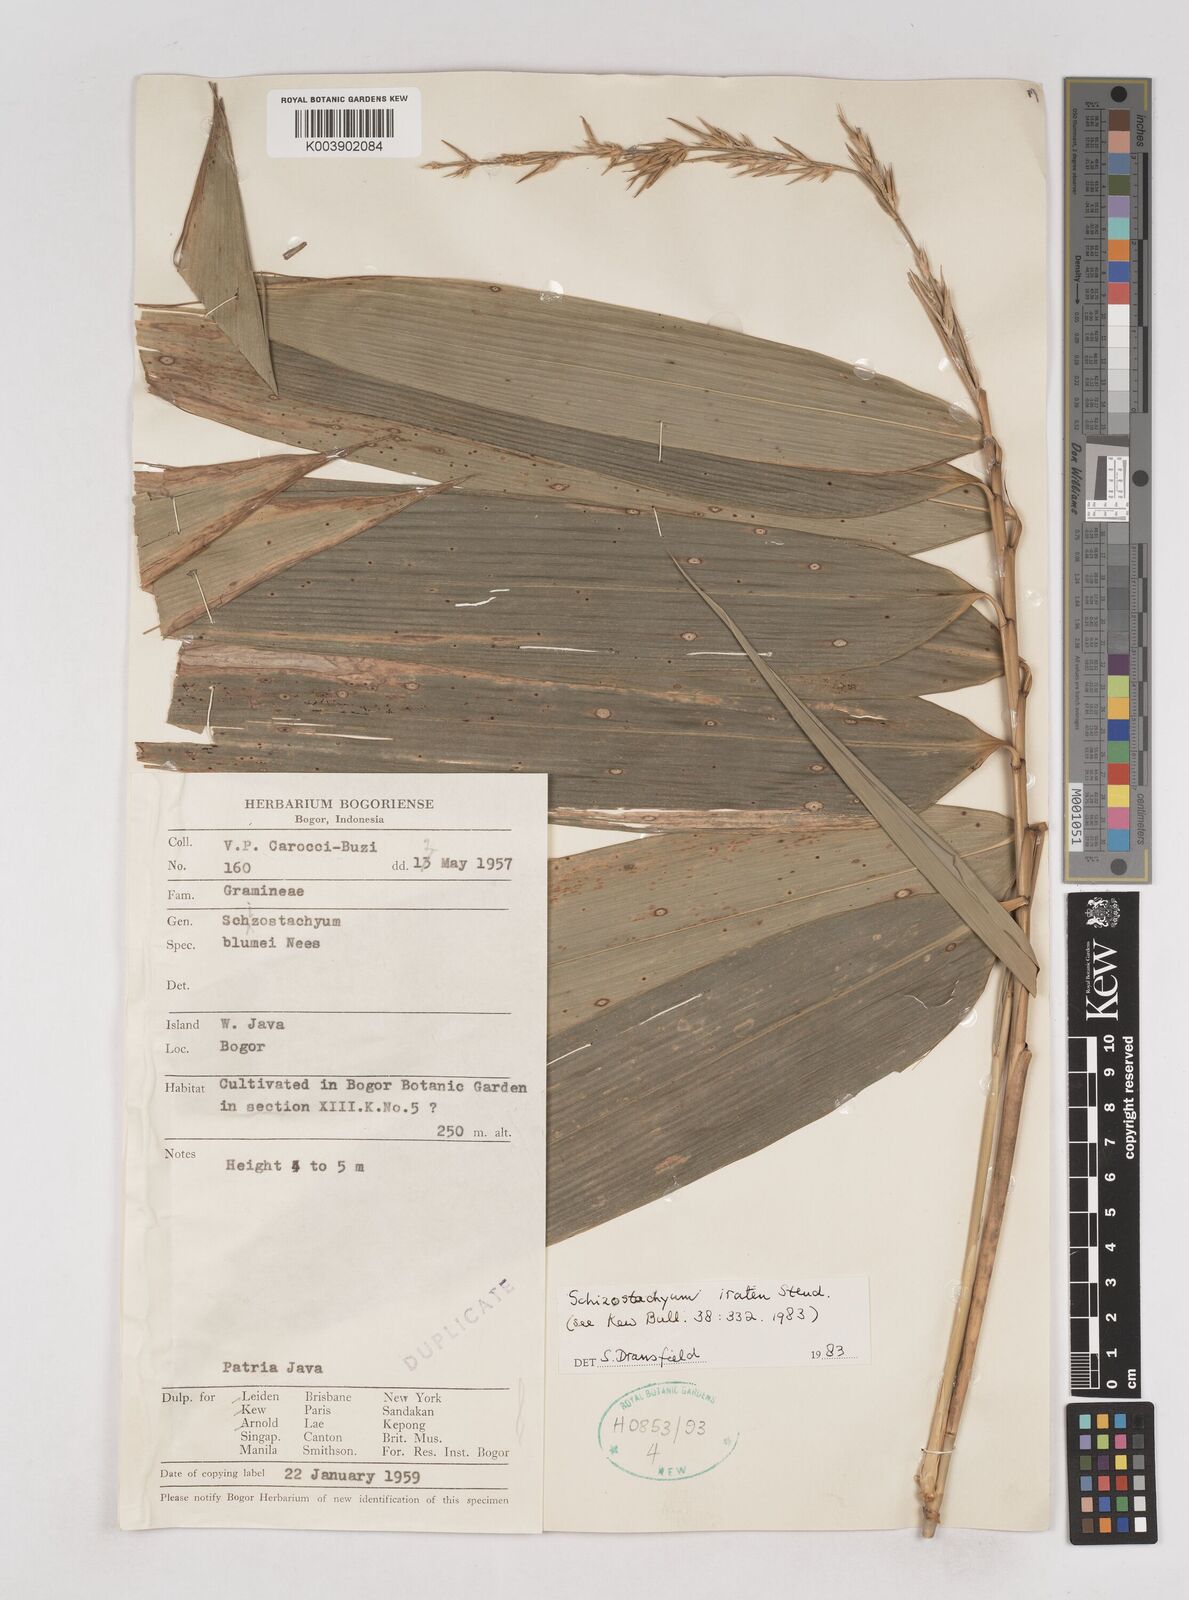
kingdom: Plantae
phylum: Tracheophyta
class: Liliopsida
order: Poales
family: Poaceae
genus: Schizostachyum
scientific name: Schizostachyum
